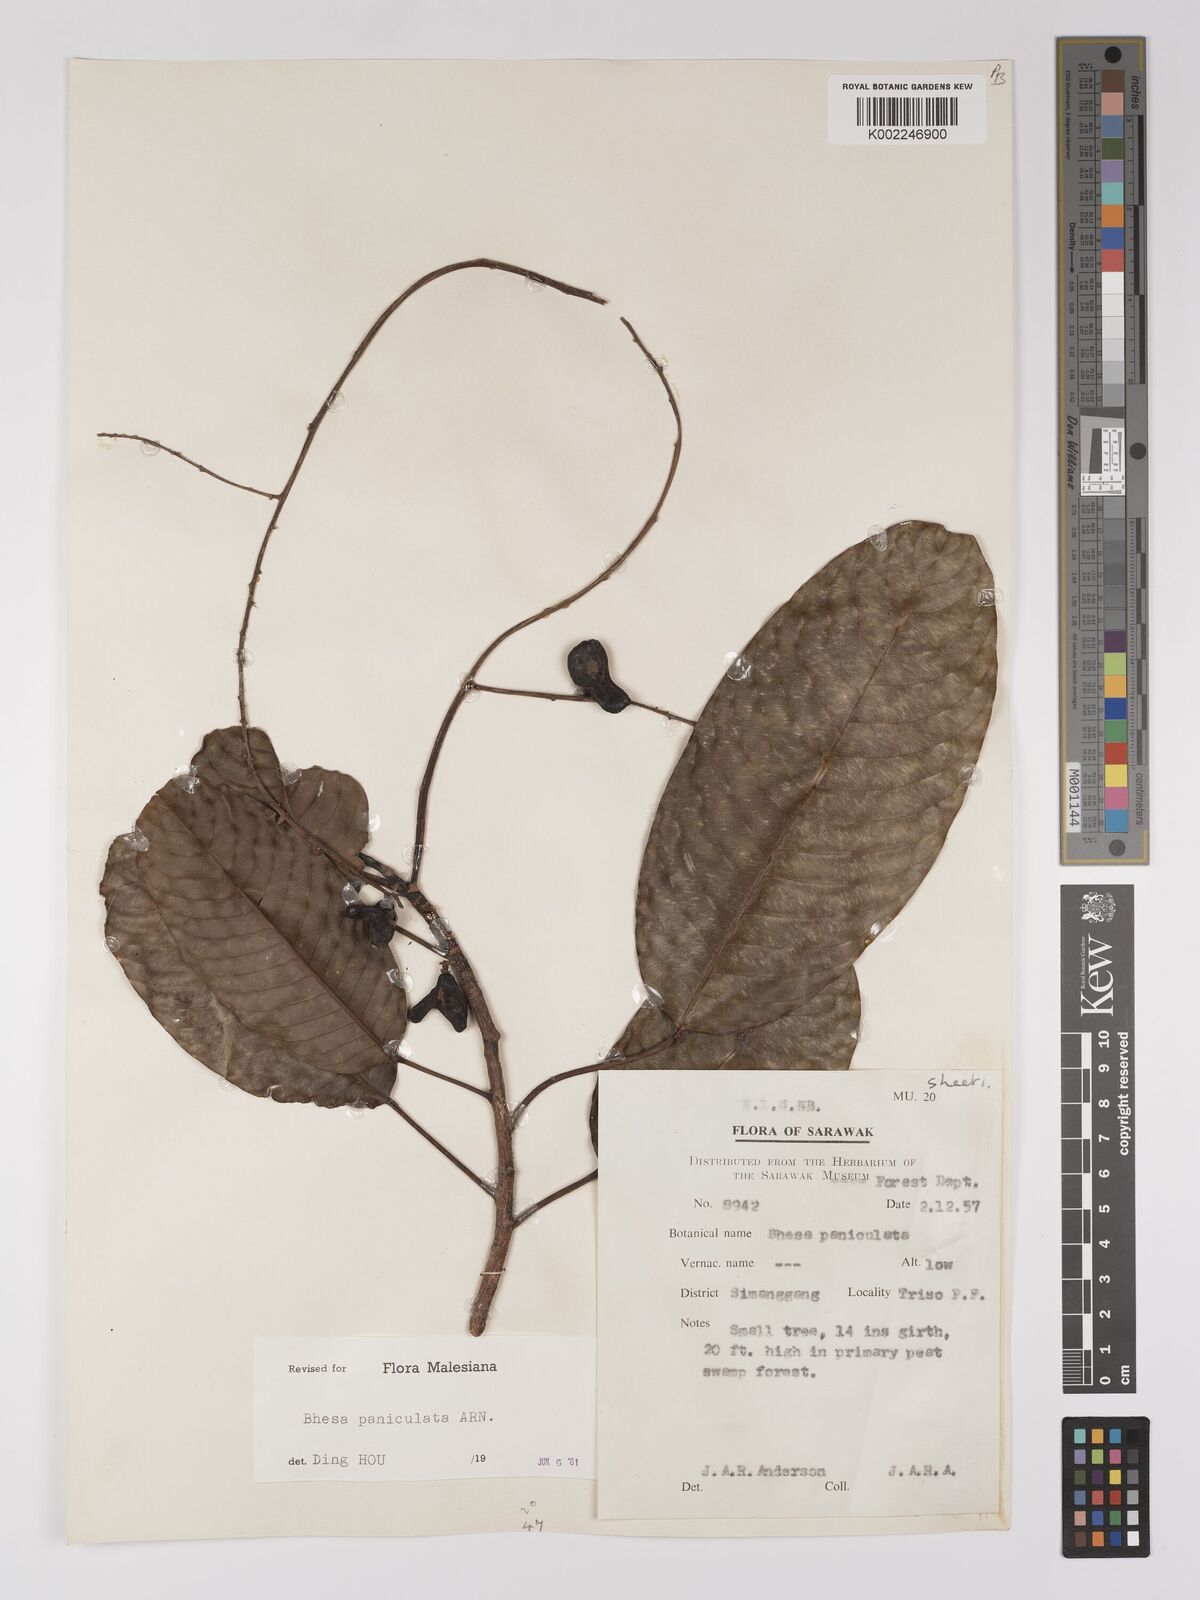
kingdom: Plantae
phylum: Tracheophyta
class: Magnoliopsida
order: Malpighiales
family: Centroplacaceae
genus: Bhesa
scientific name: Bhesa paniculata
